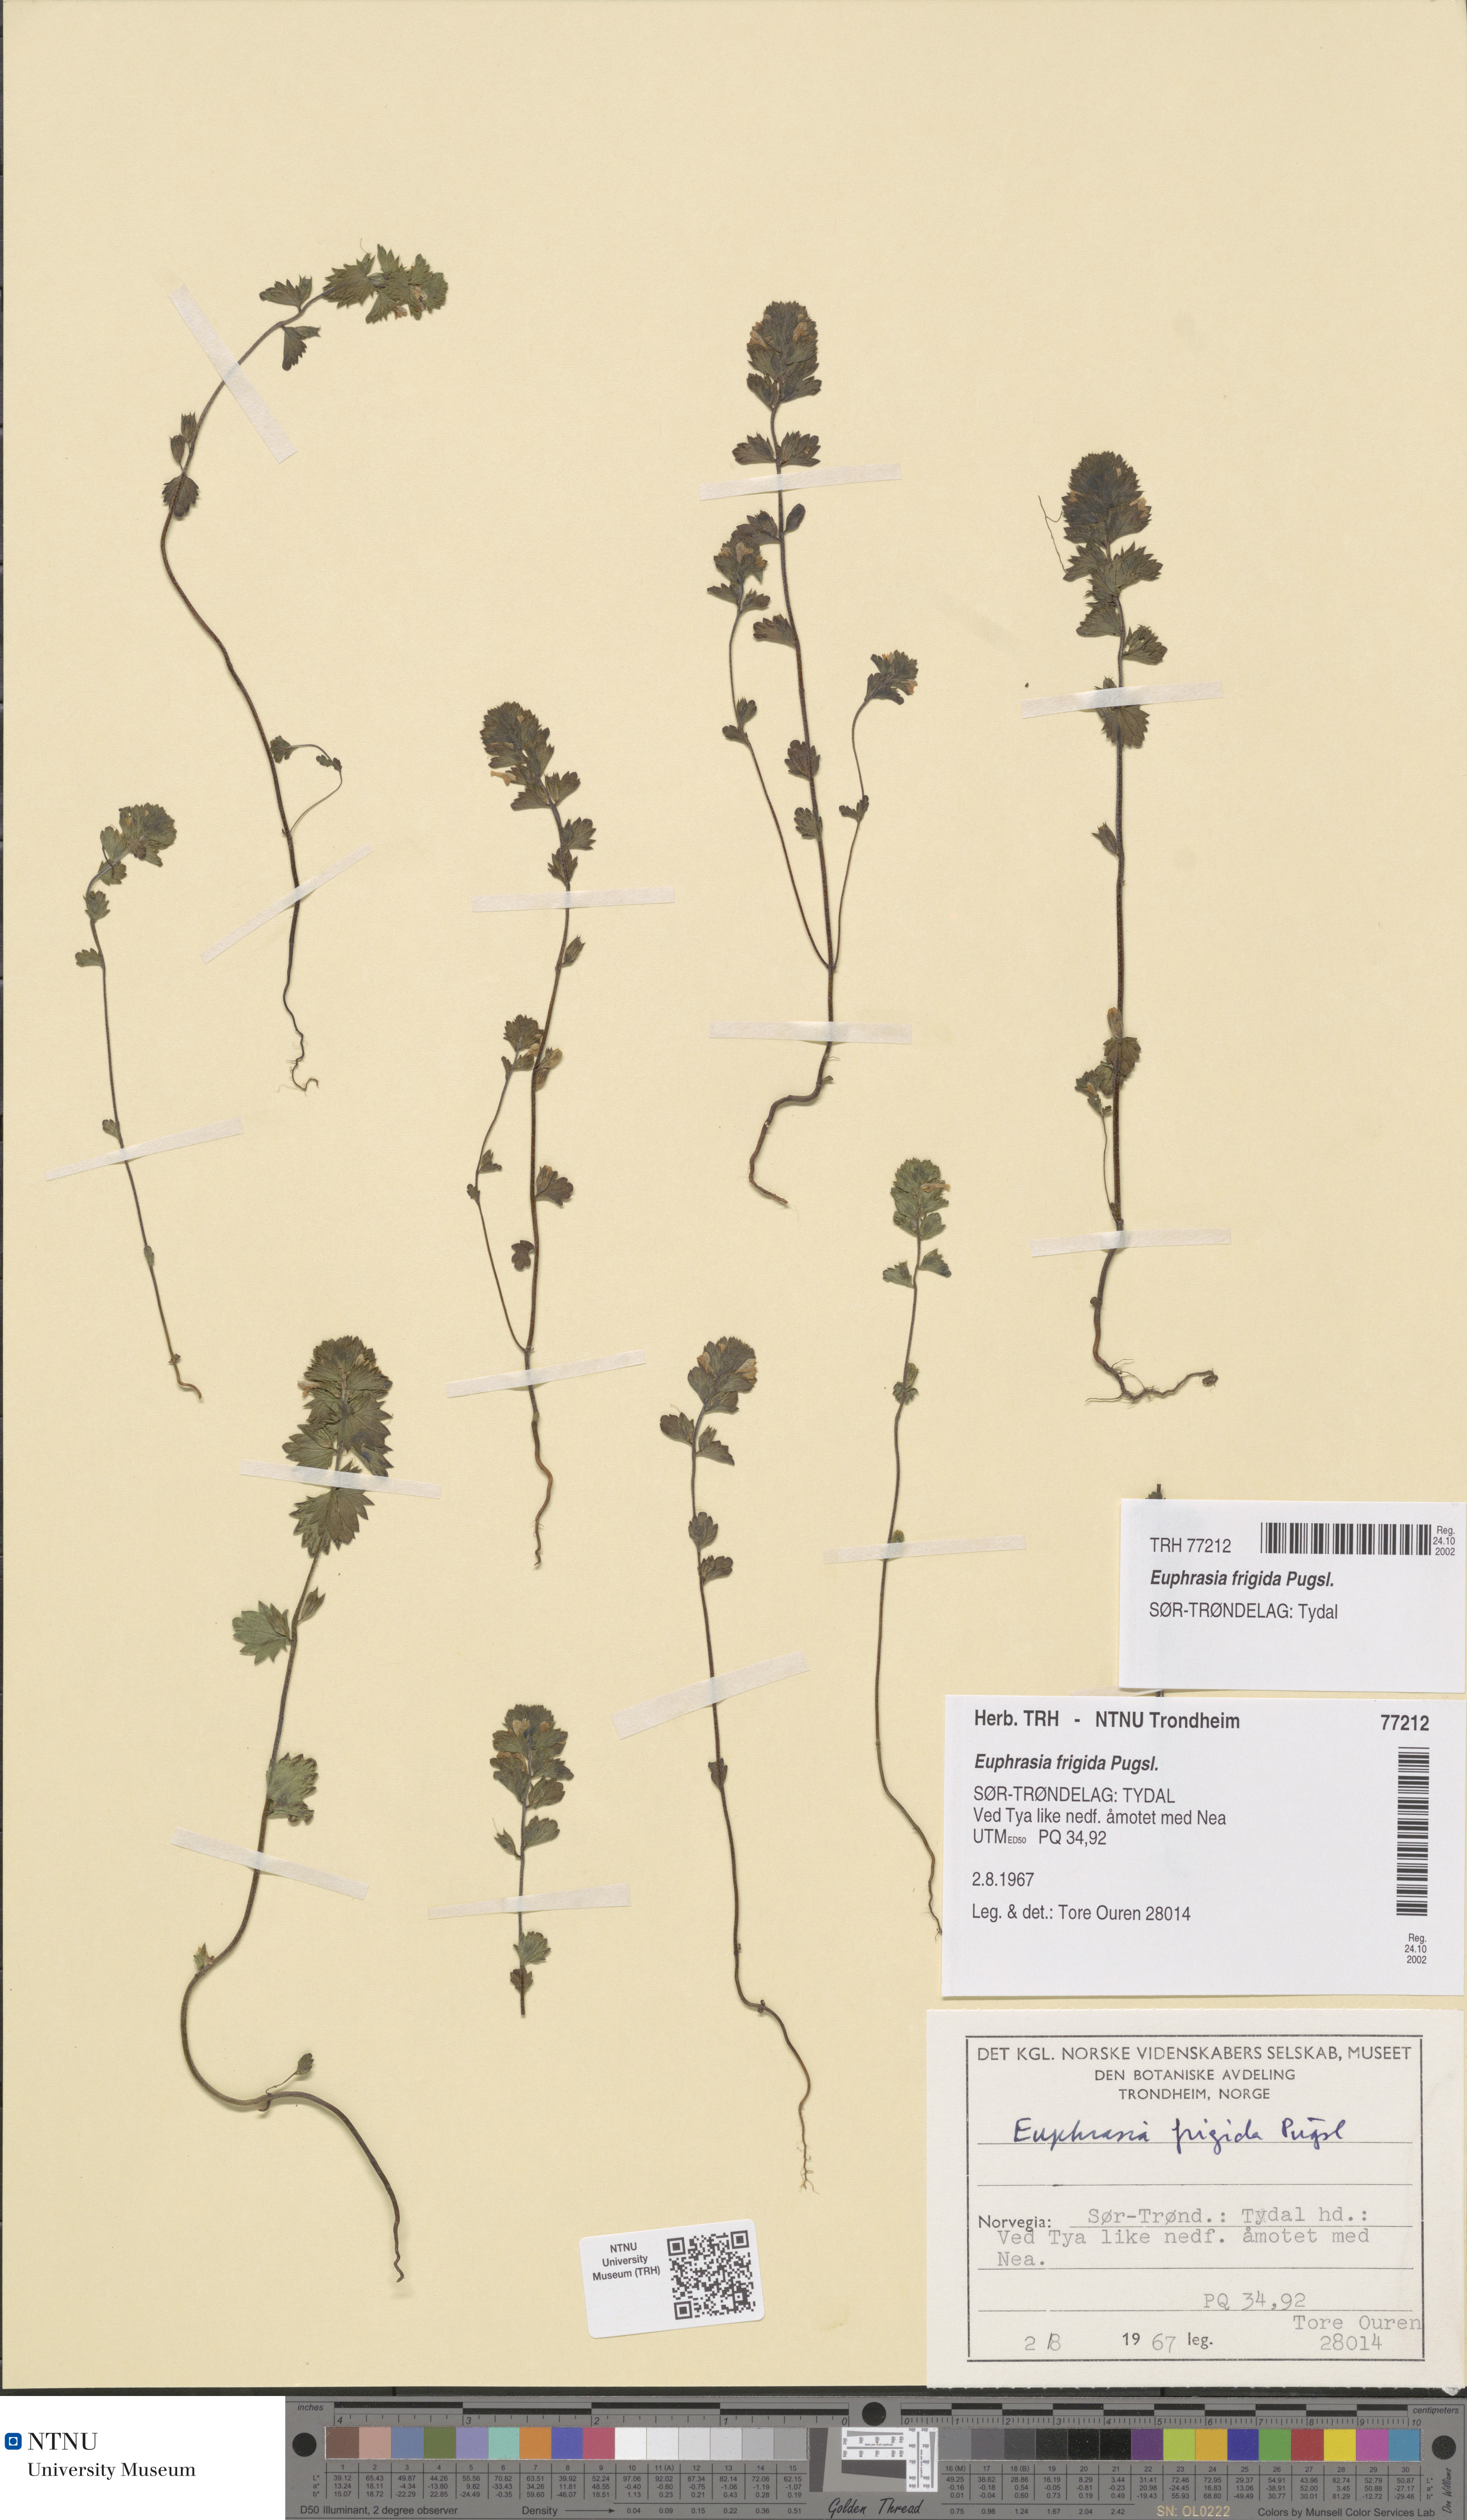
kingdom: Plantae
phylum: Tracheophyta
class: Magnoliopsida
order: Lamiales
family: Orobanchaceae
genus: Euphrasia
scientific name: Euphrasia wettsteinii
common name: Wettstein's eyebright
